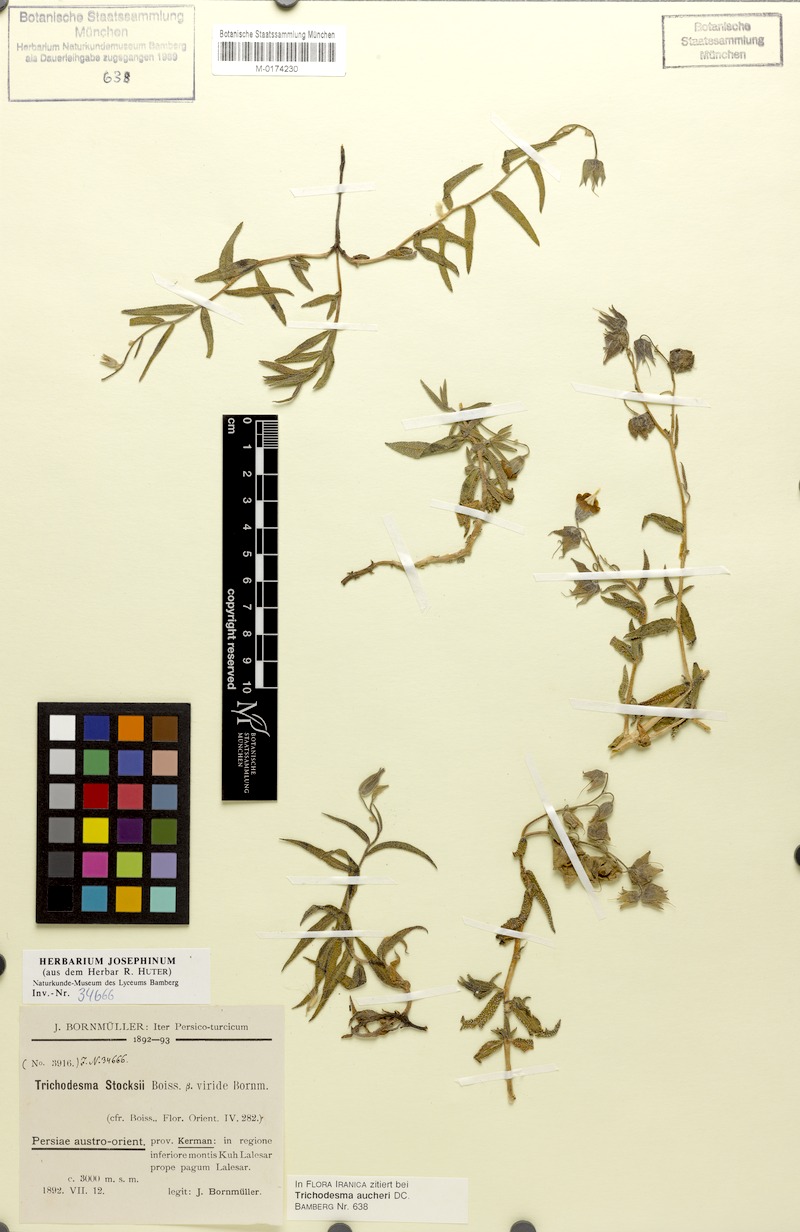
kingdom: Plantae
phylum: Tracheophyta
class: Magnoliopsida
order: Boraginales
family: Boraginaceae
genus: Trichodesma
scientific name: Trichodesma aucheri
